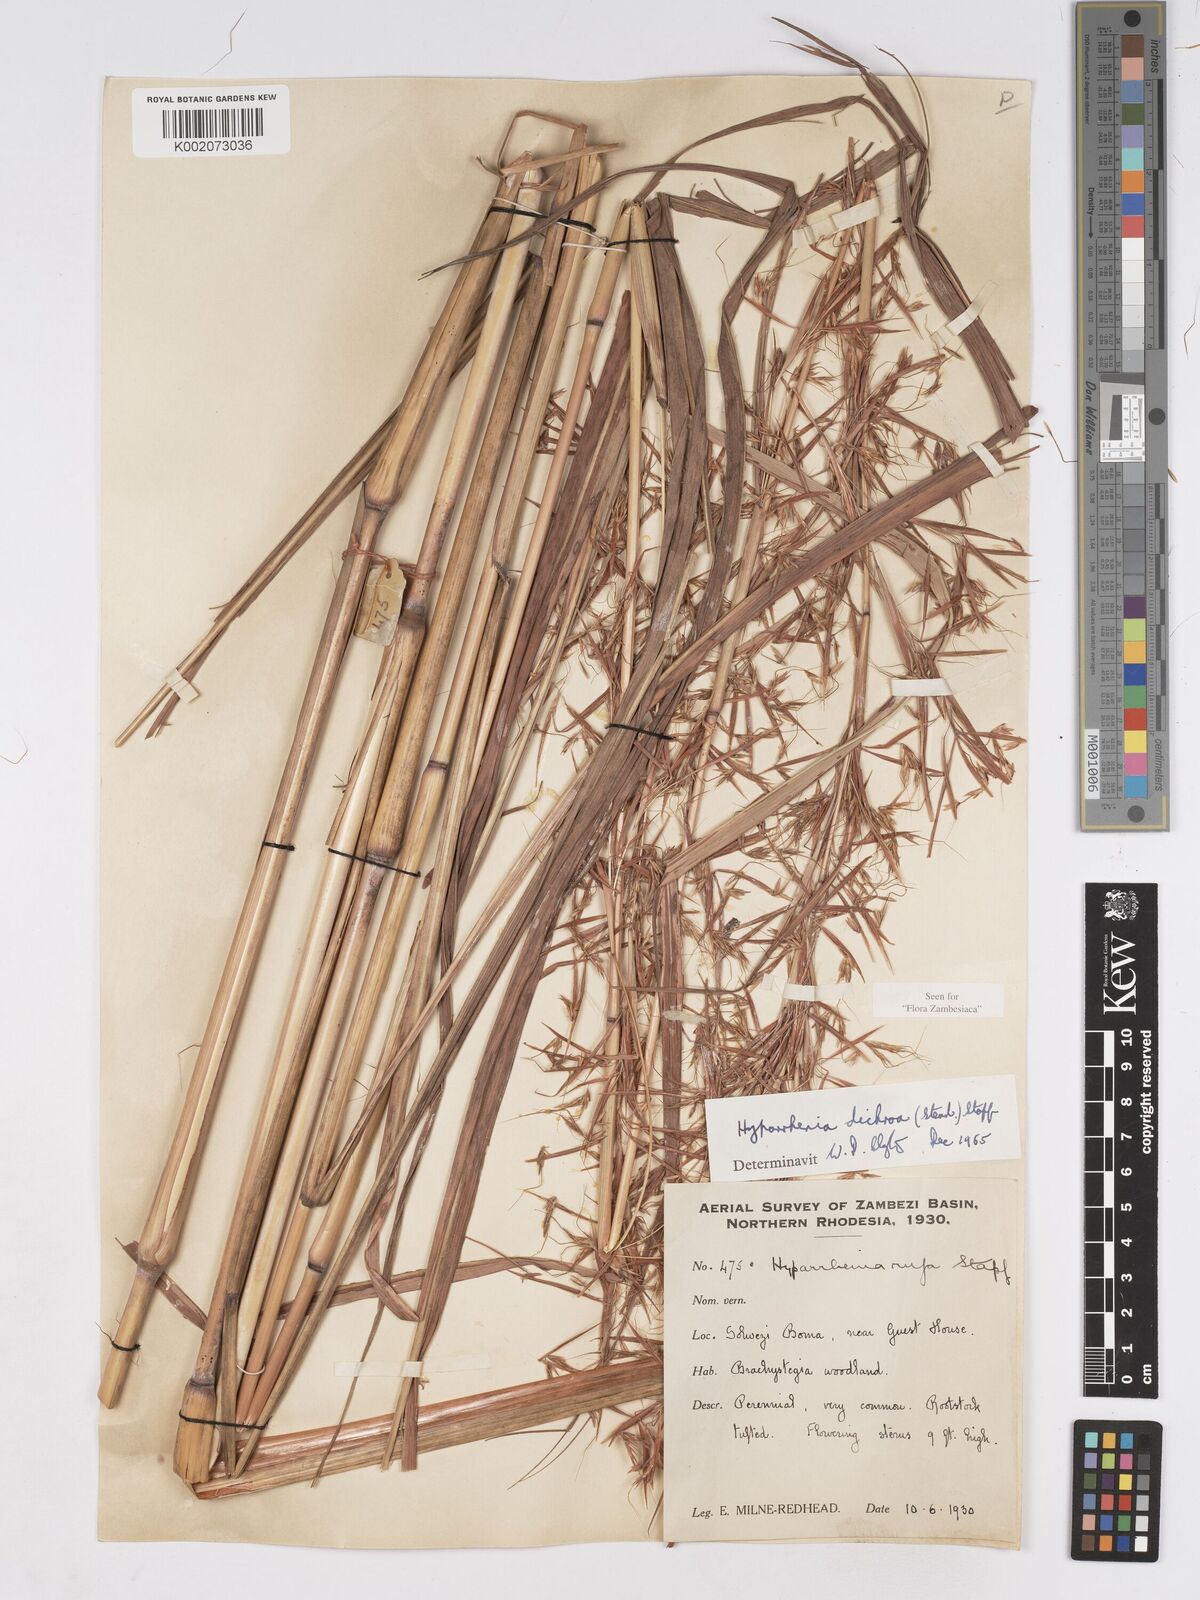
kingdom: Plantae
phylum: Tracheophyta
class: Liliopsida
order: Poales
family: Poaceae
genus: Hyparrhenia
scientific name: Hyparrhenia dichroa
